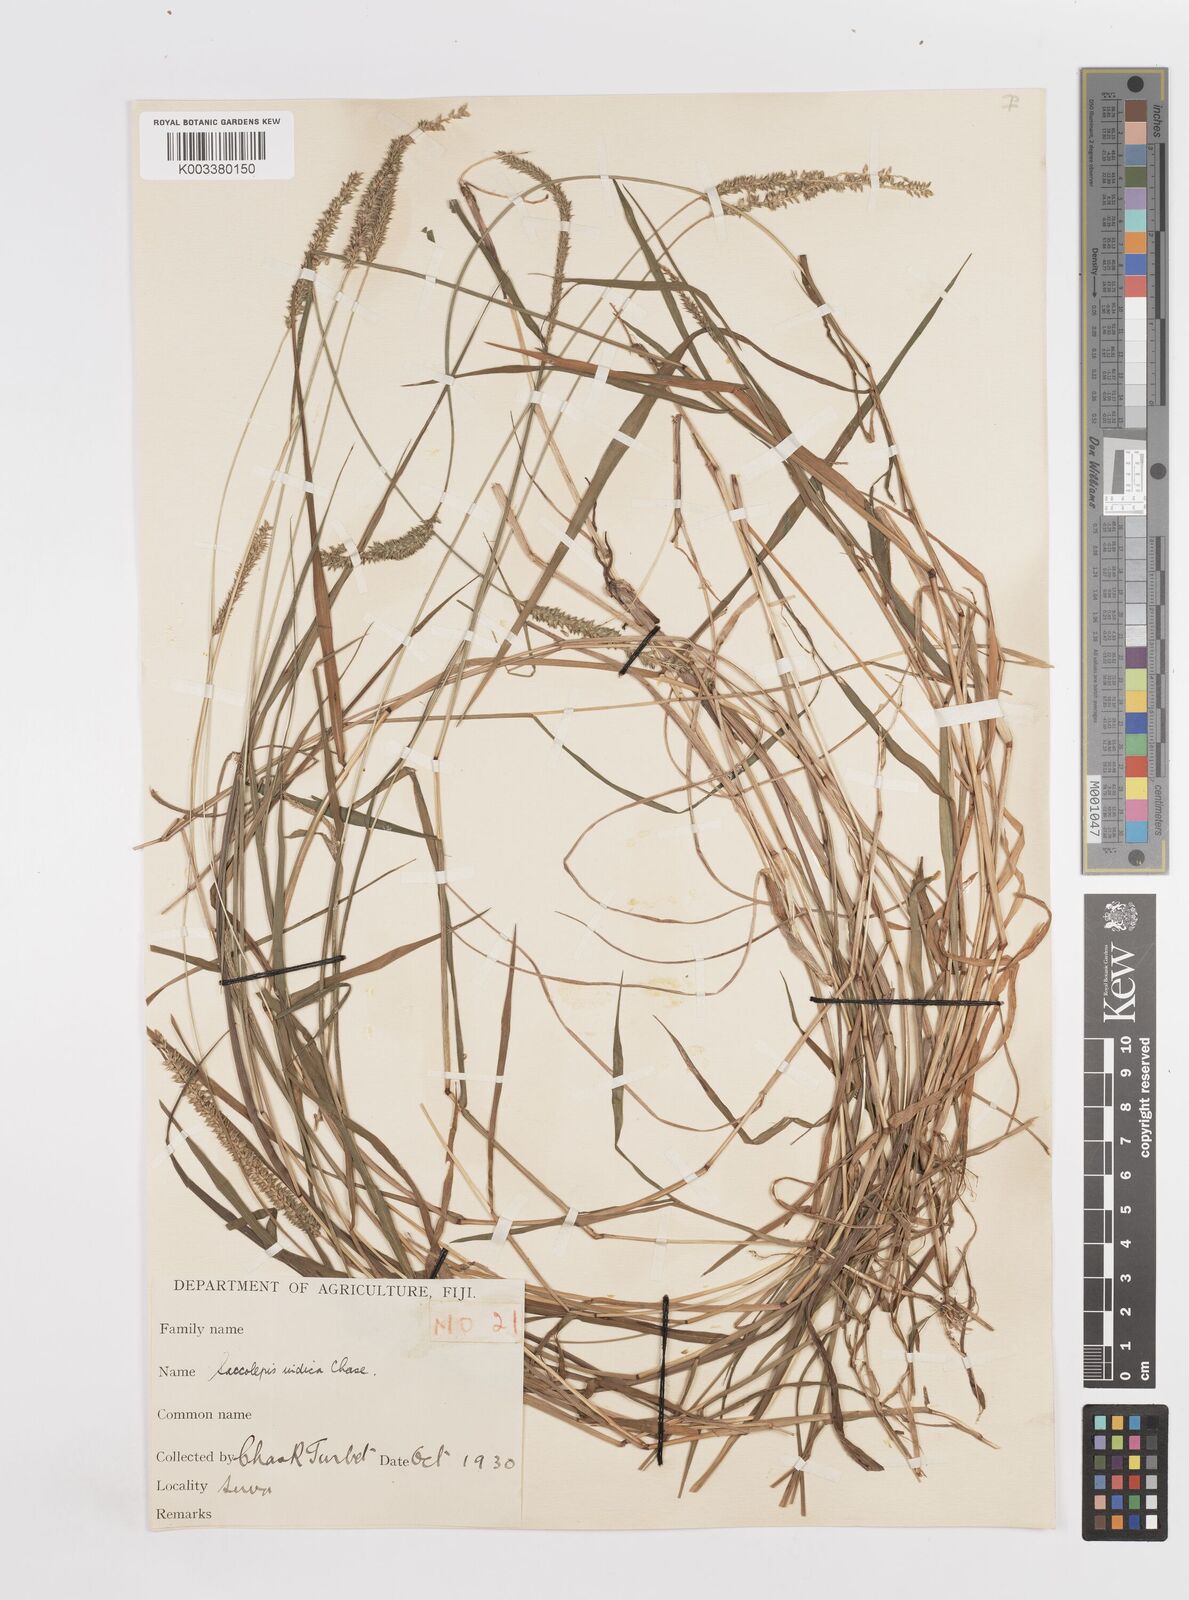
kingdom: Plantae
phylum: Tracheophyta
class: Liliopsida
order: Poales
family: Poaceae
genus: Sacciolepis
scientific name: Sacciolepis indica
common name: Glenwoodgrass
